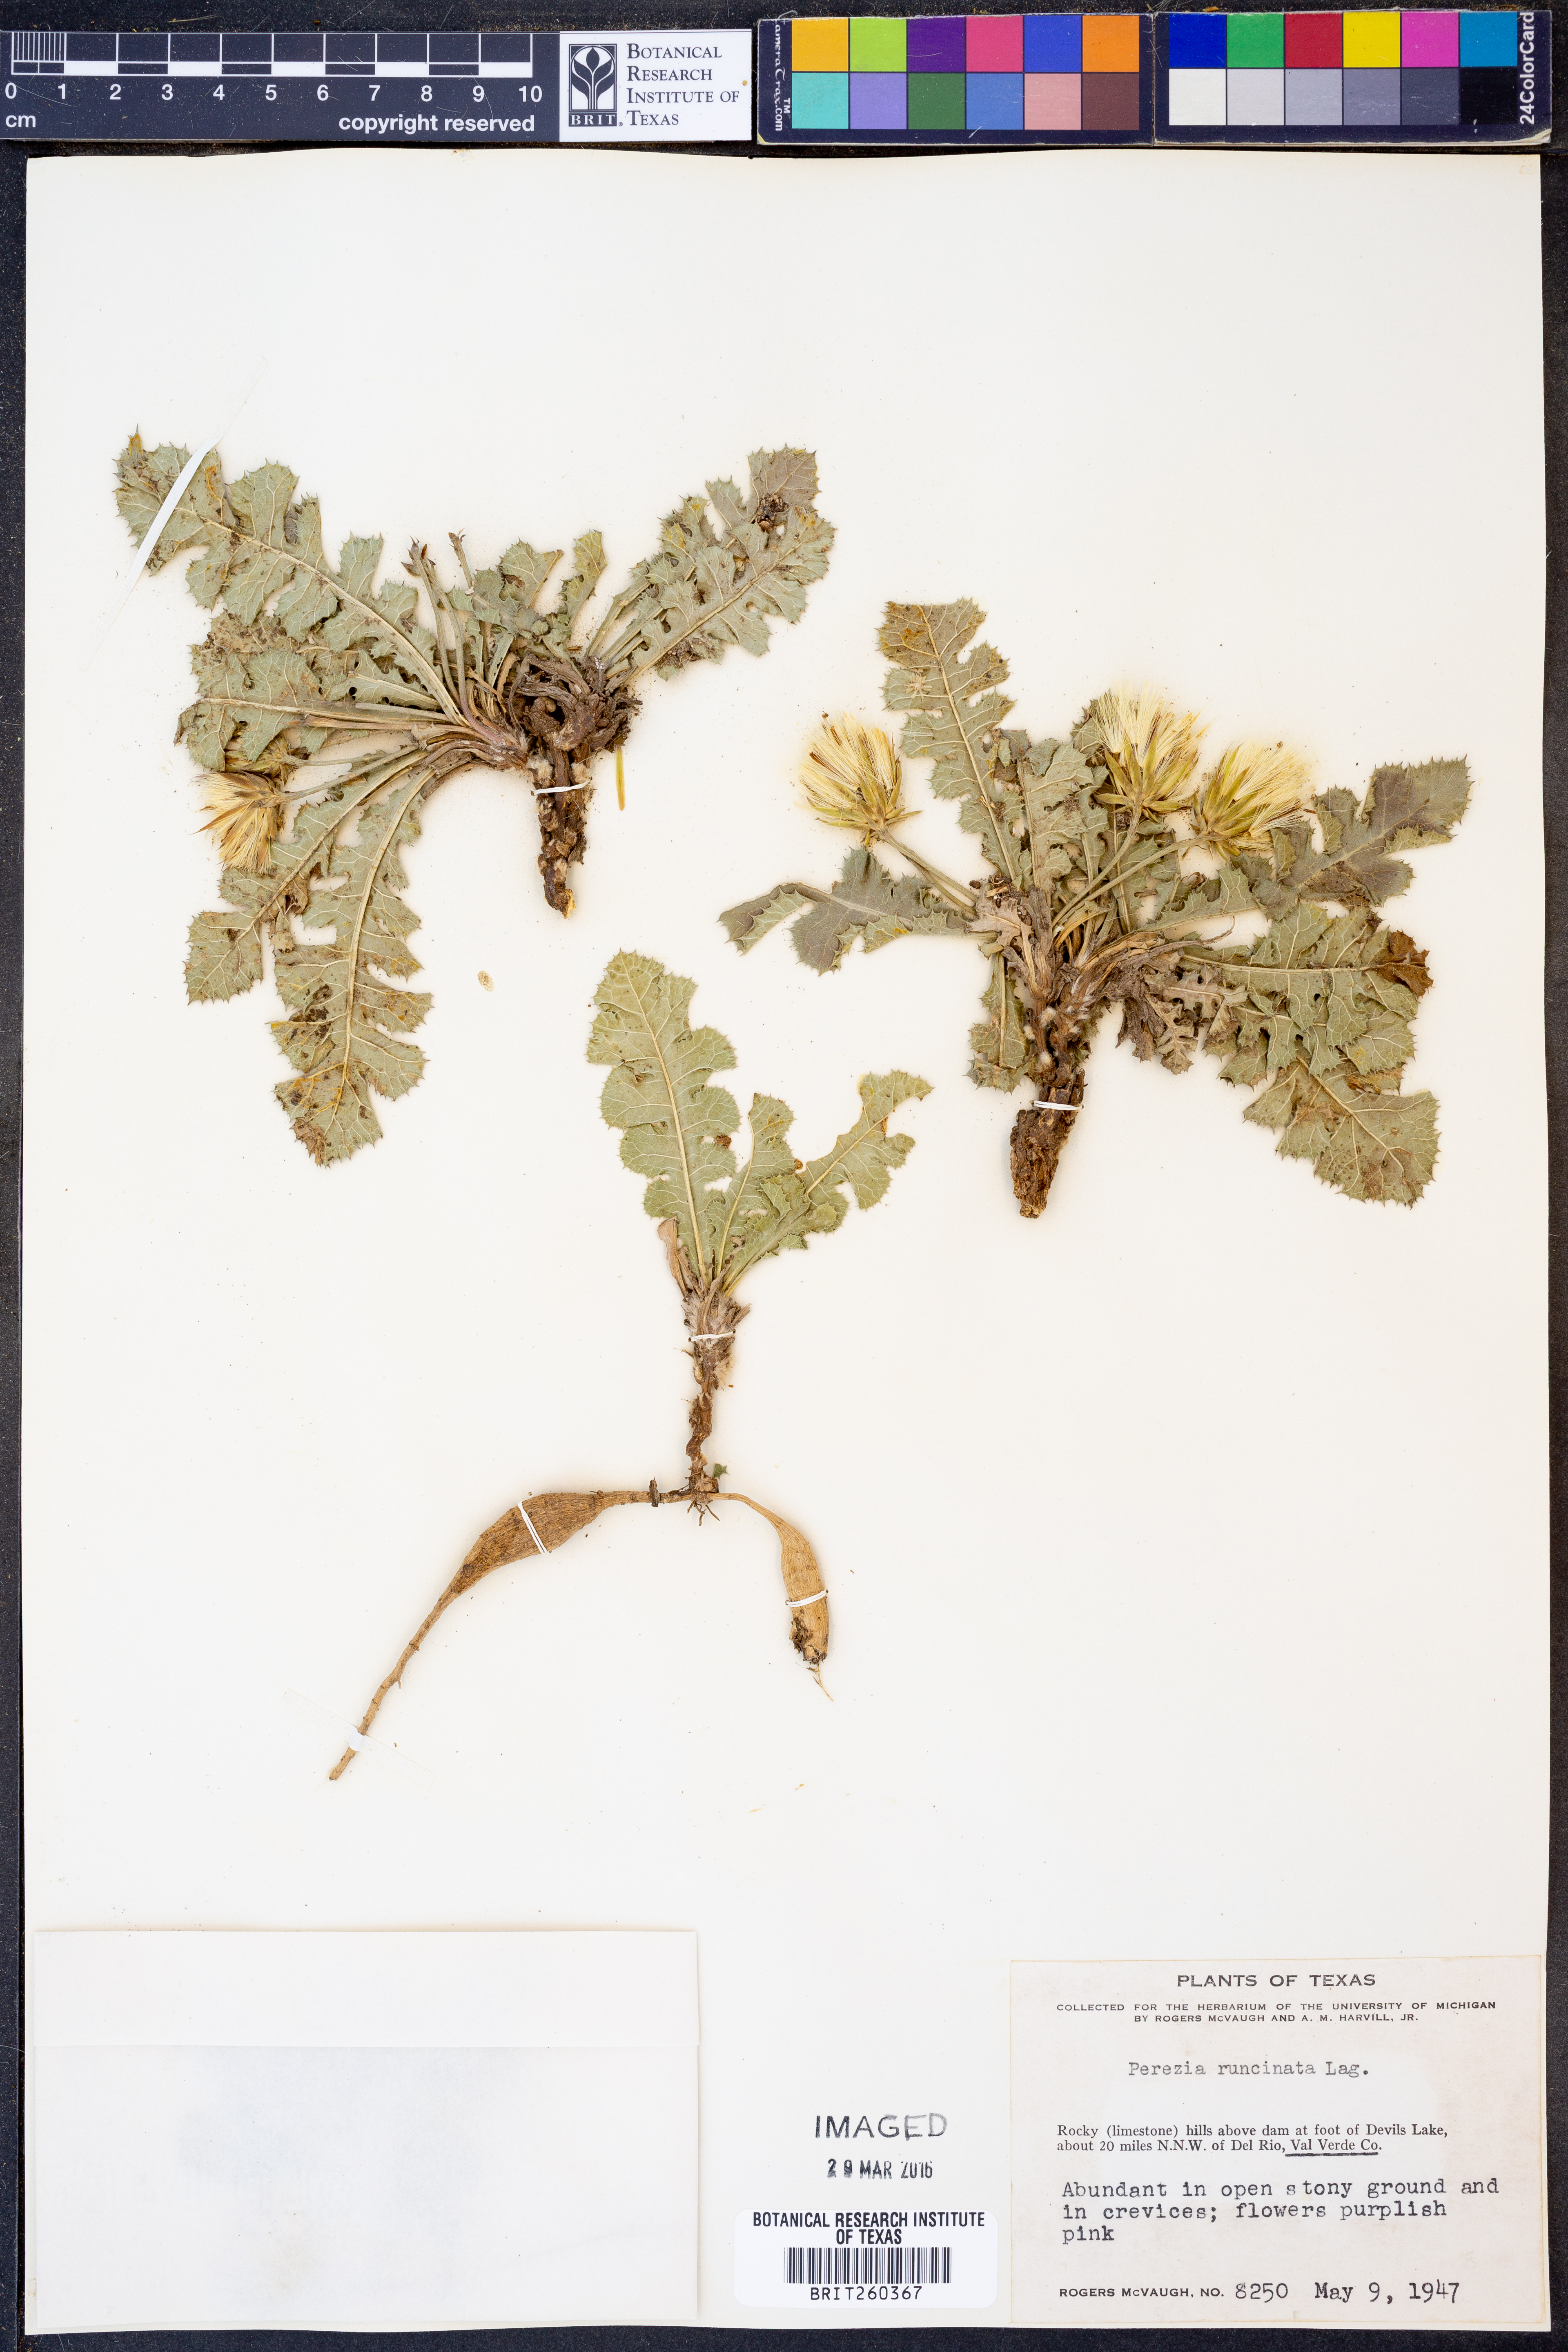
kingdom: Plantae
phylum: Tracheophyta
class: Magnoliopsida
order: Asterales
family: Asteraceae
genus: Acourtia
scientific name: Acourtia runcinata
